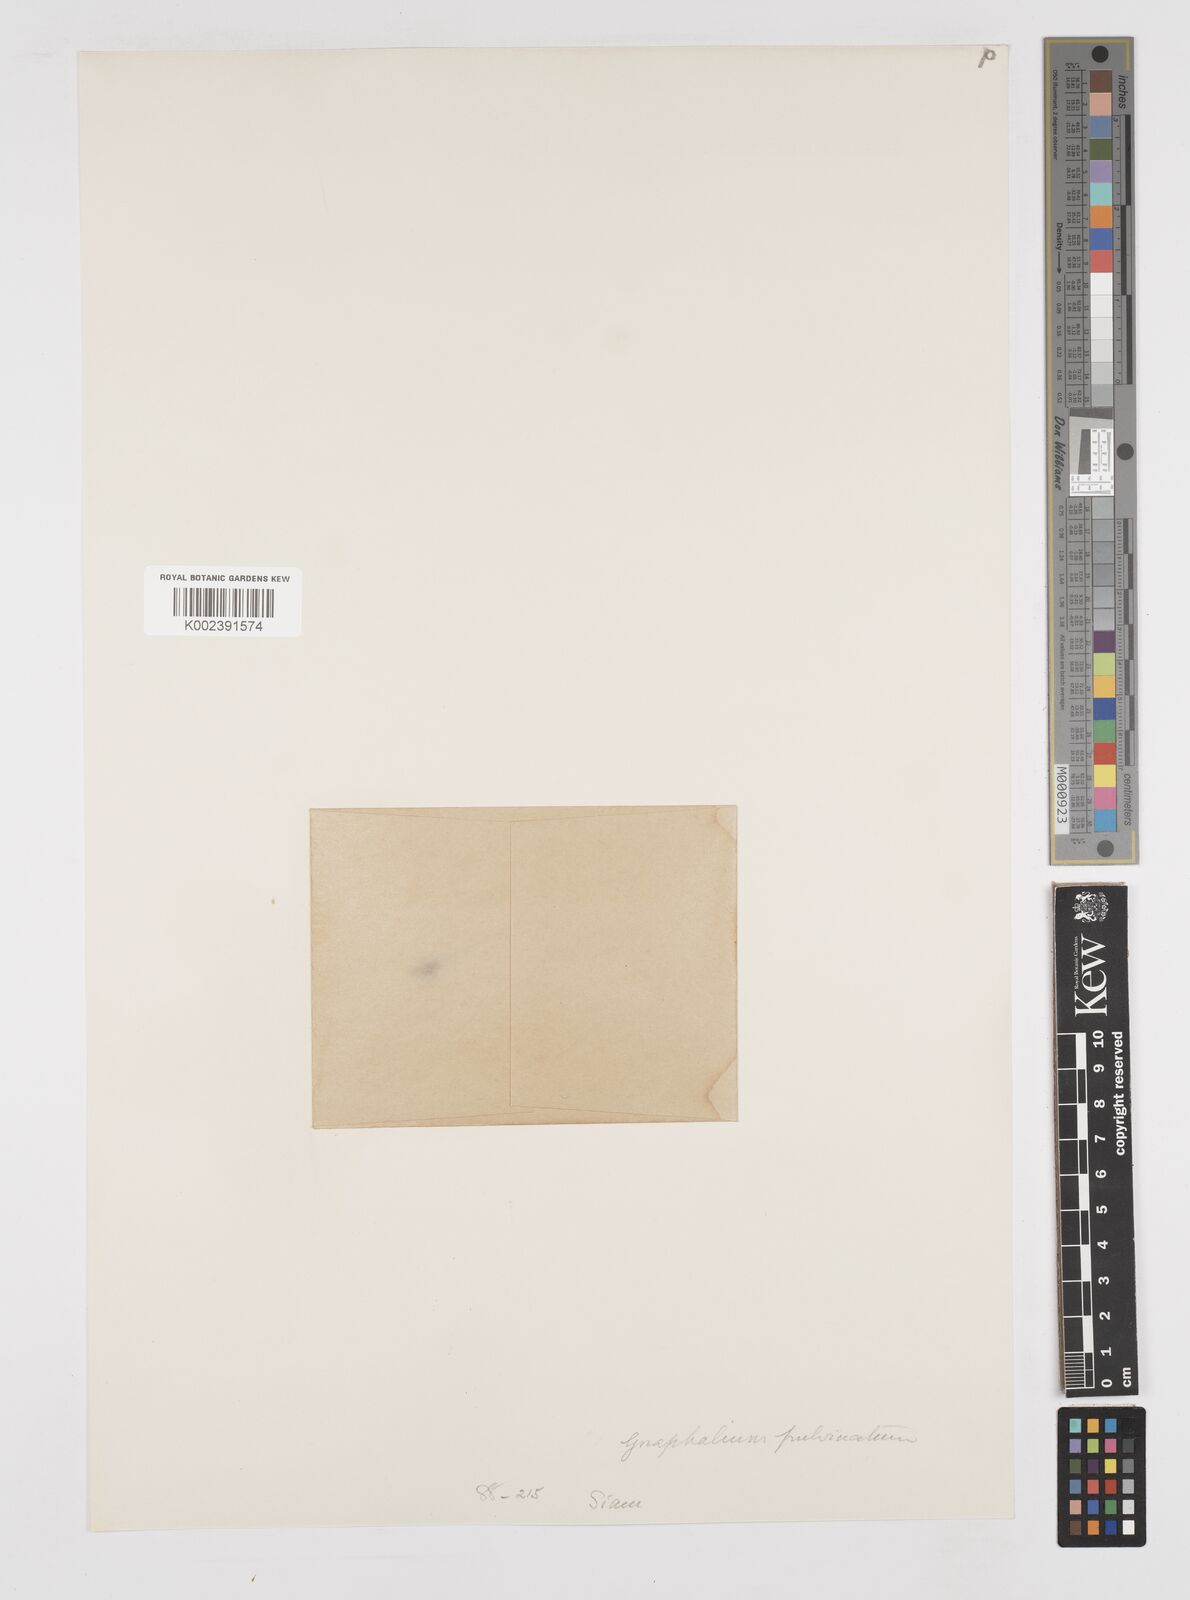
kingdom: Plantae
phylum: Tracheophyta
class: Magnoliopsida
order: Asterales
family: Asteraceae
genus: Gnomophalium
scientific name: Gnomophalium pulvinatum
